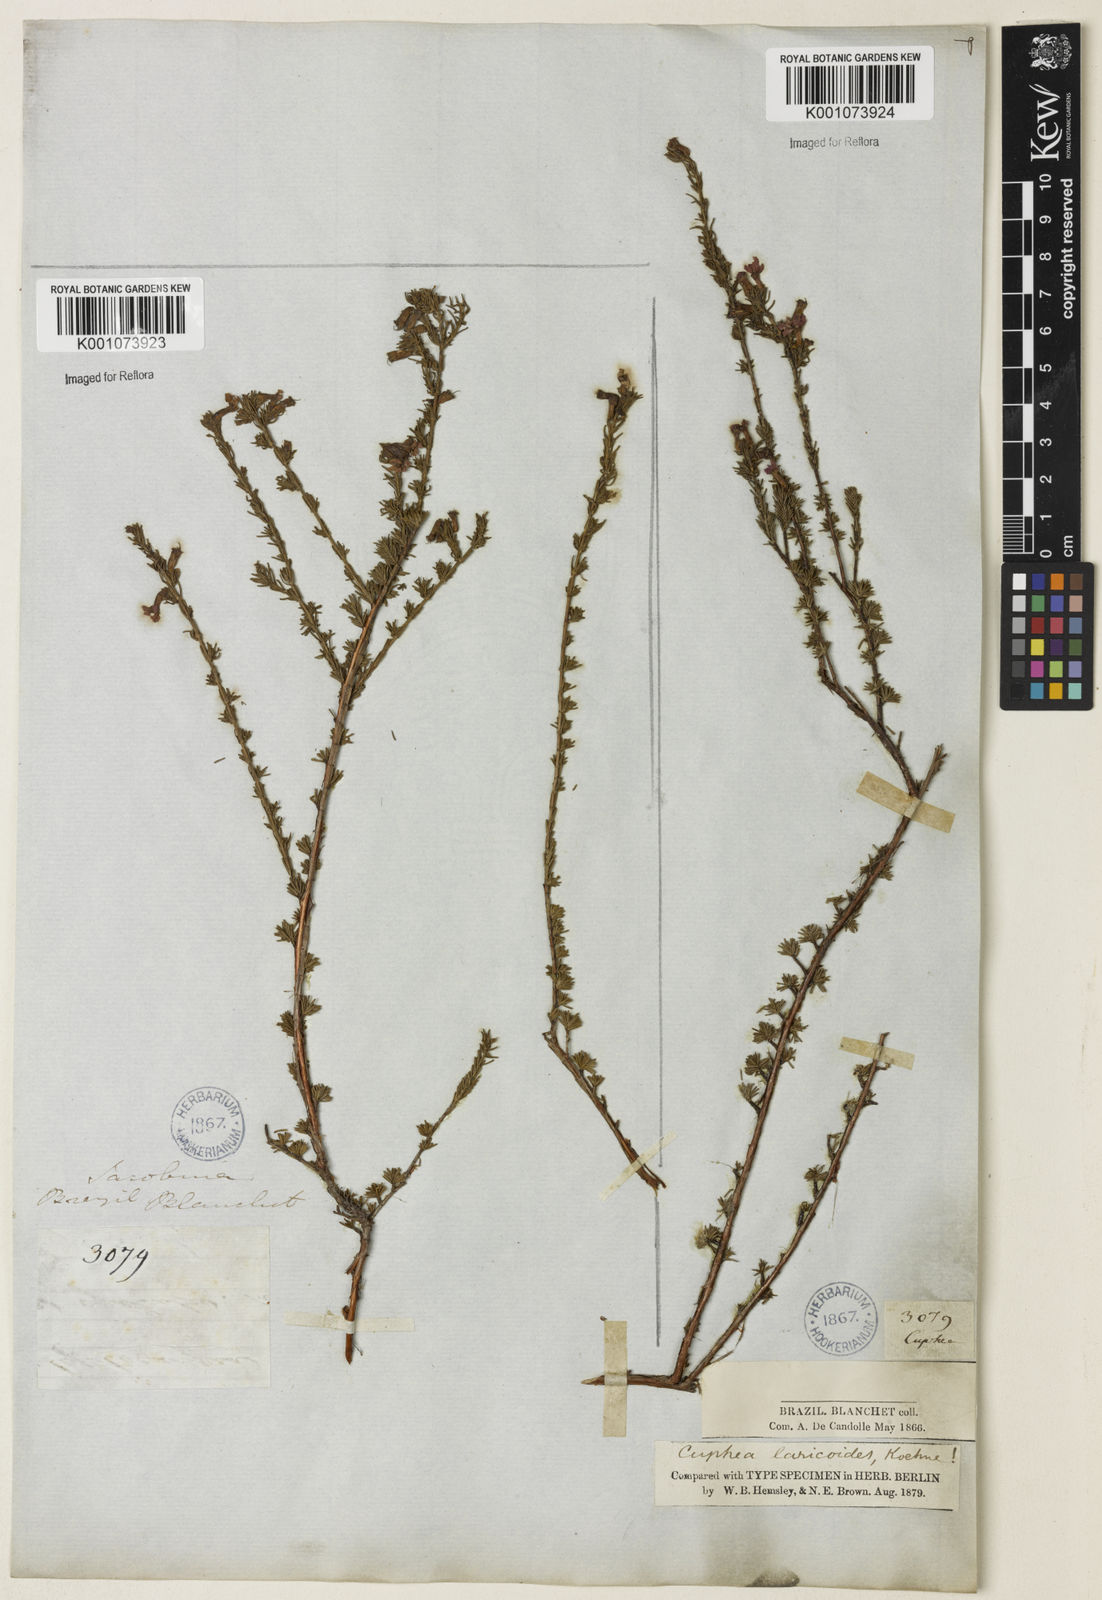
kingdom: Plantae
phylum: Tracheophyta
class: Magnoliopsida
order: Myrtales
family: Lythraceae
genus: Cuphea
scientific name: Cuphea laricoides
